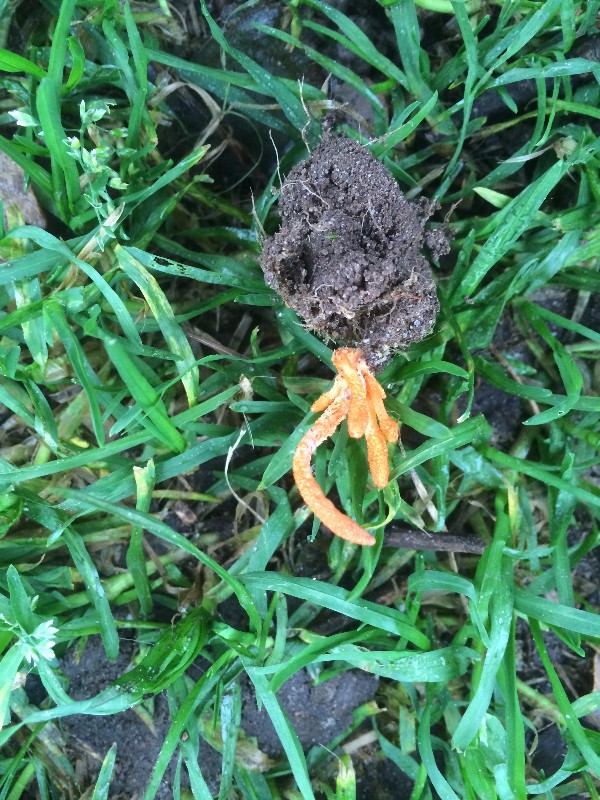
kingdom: Fungi
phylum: Ascomycota
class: Sordariomycetes
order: Hypocreales
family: Cordycipitaceae
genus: Cordyceps
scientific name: Cordyceps militaris
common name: puppe-snyltekølle
